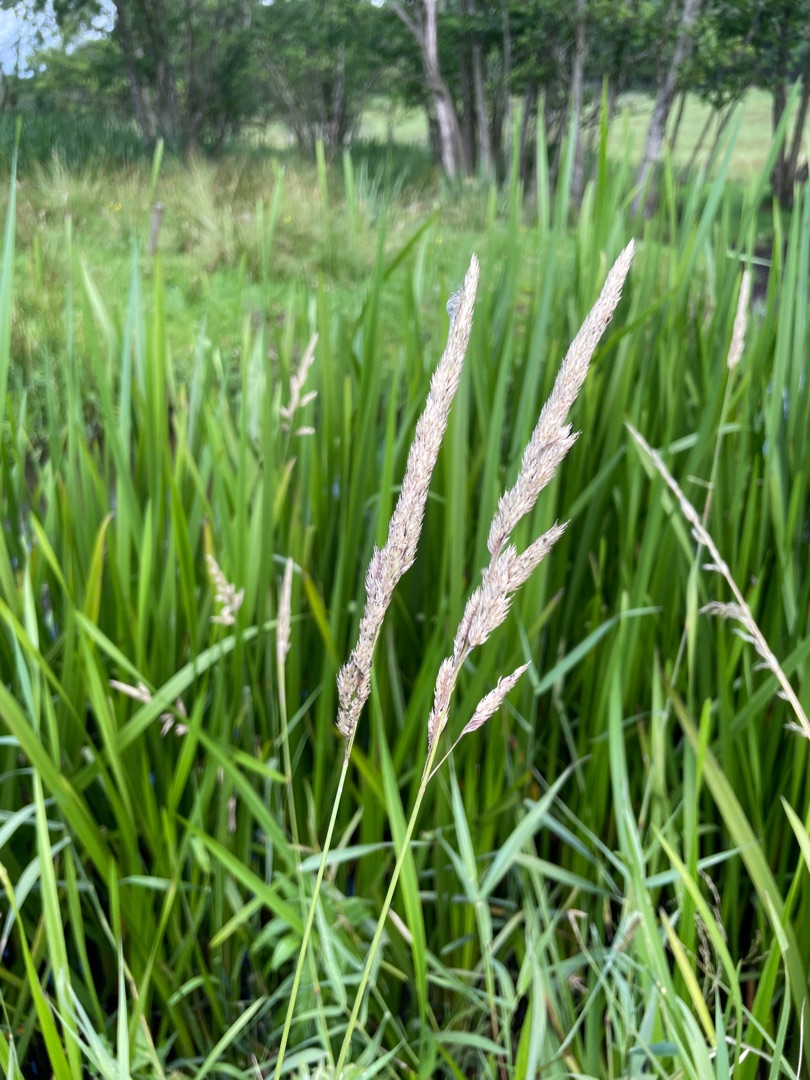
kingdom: Plantae
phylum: Tracheophyta
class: Liliopsida
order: Poales
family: Poaceae
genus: Phalaris
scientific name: Phalaris arundinacea
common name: Rørgræs
